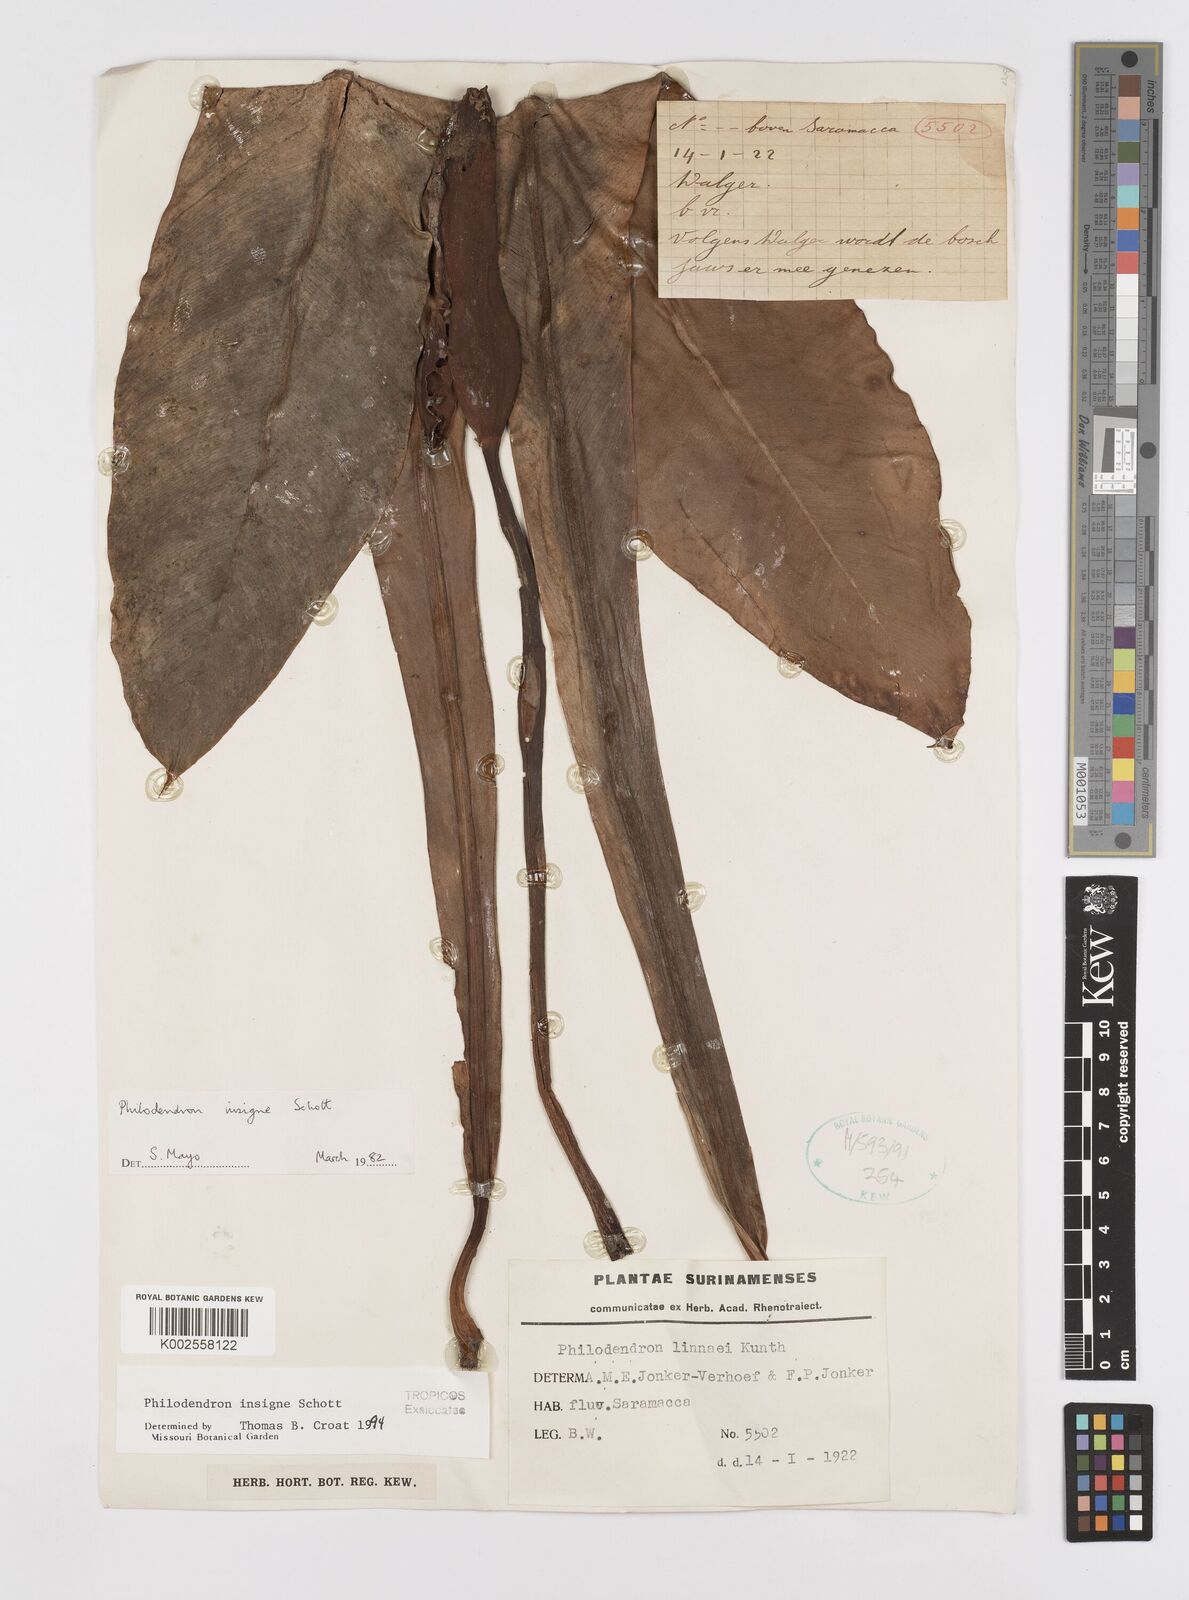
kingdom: Plantae
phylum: Tracheophyta
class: Liliopsida
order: Alismatales
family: Araceae
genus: Philodendron
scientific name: Philodendron insigne
